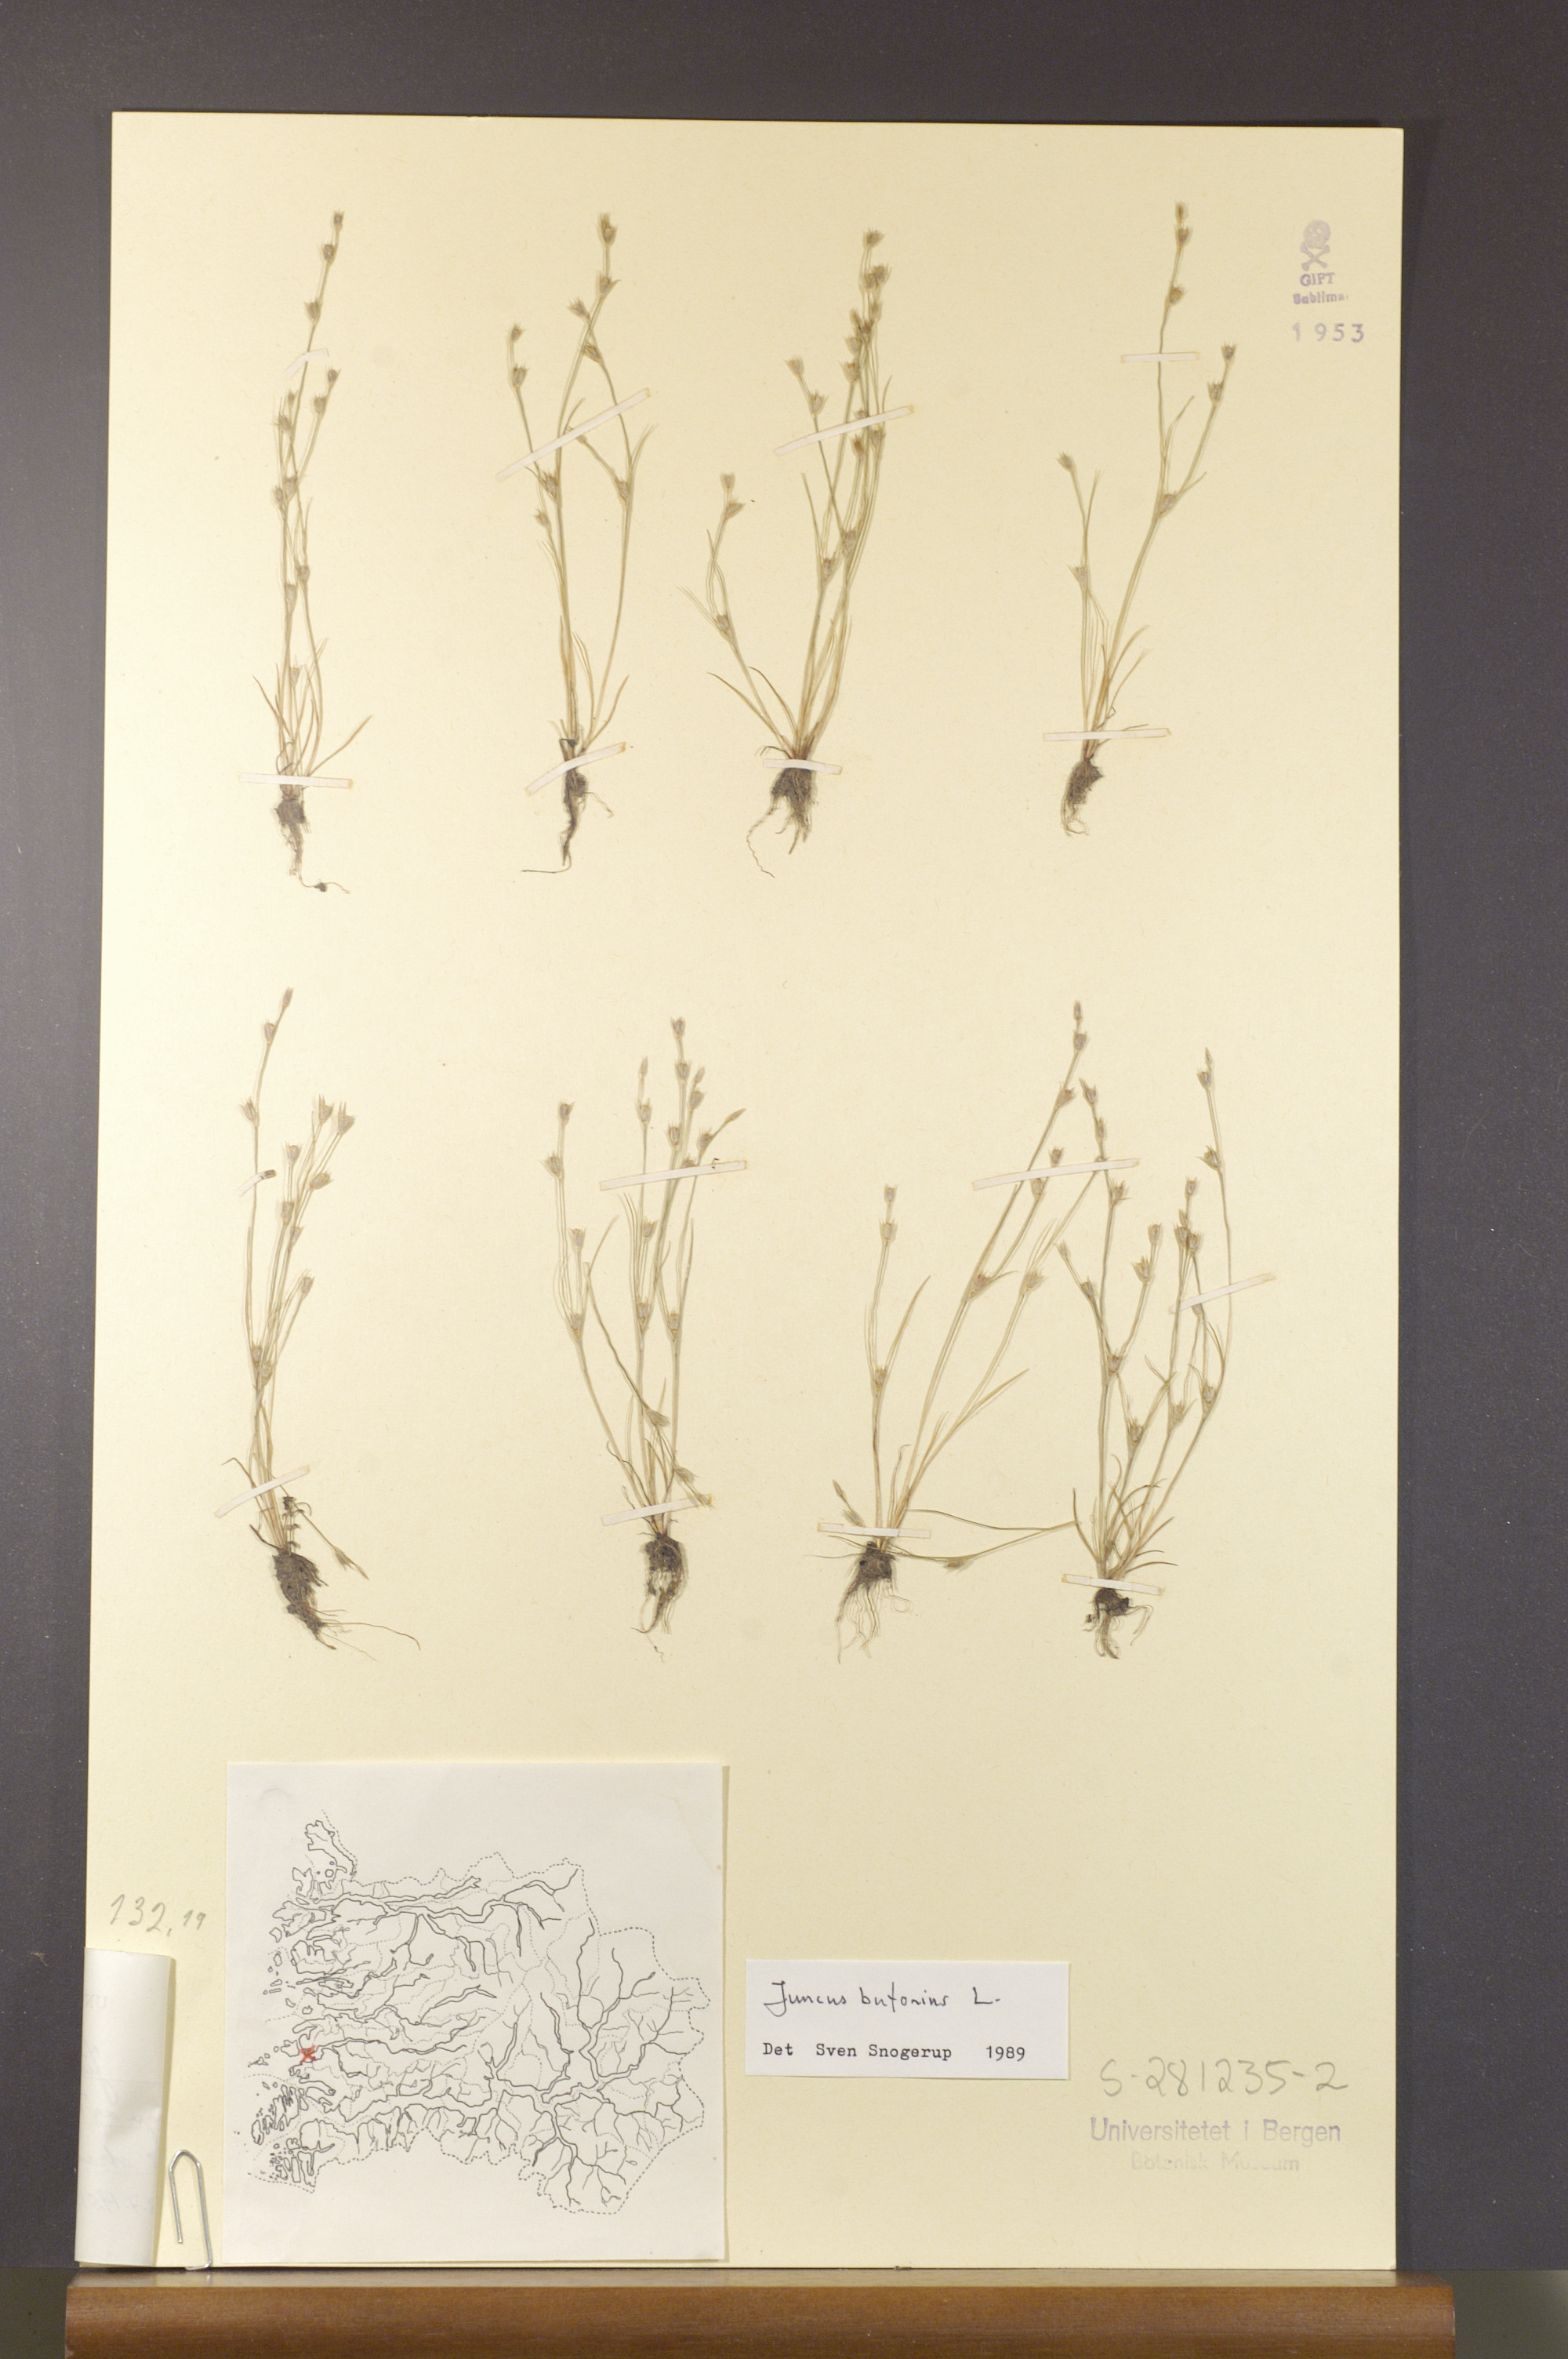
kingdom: Plantae
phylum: Tracheophyta
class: Liliopsida
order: Poales
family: Juncaceae
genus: Juncus
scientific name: Juncus bufonius
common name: Toad rush
